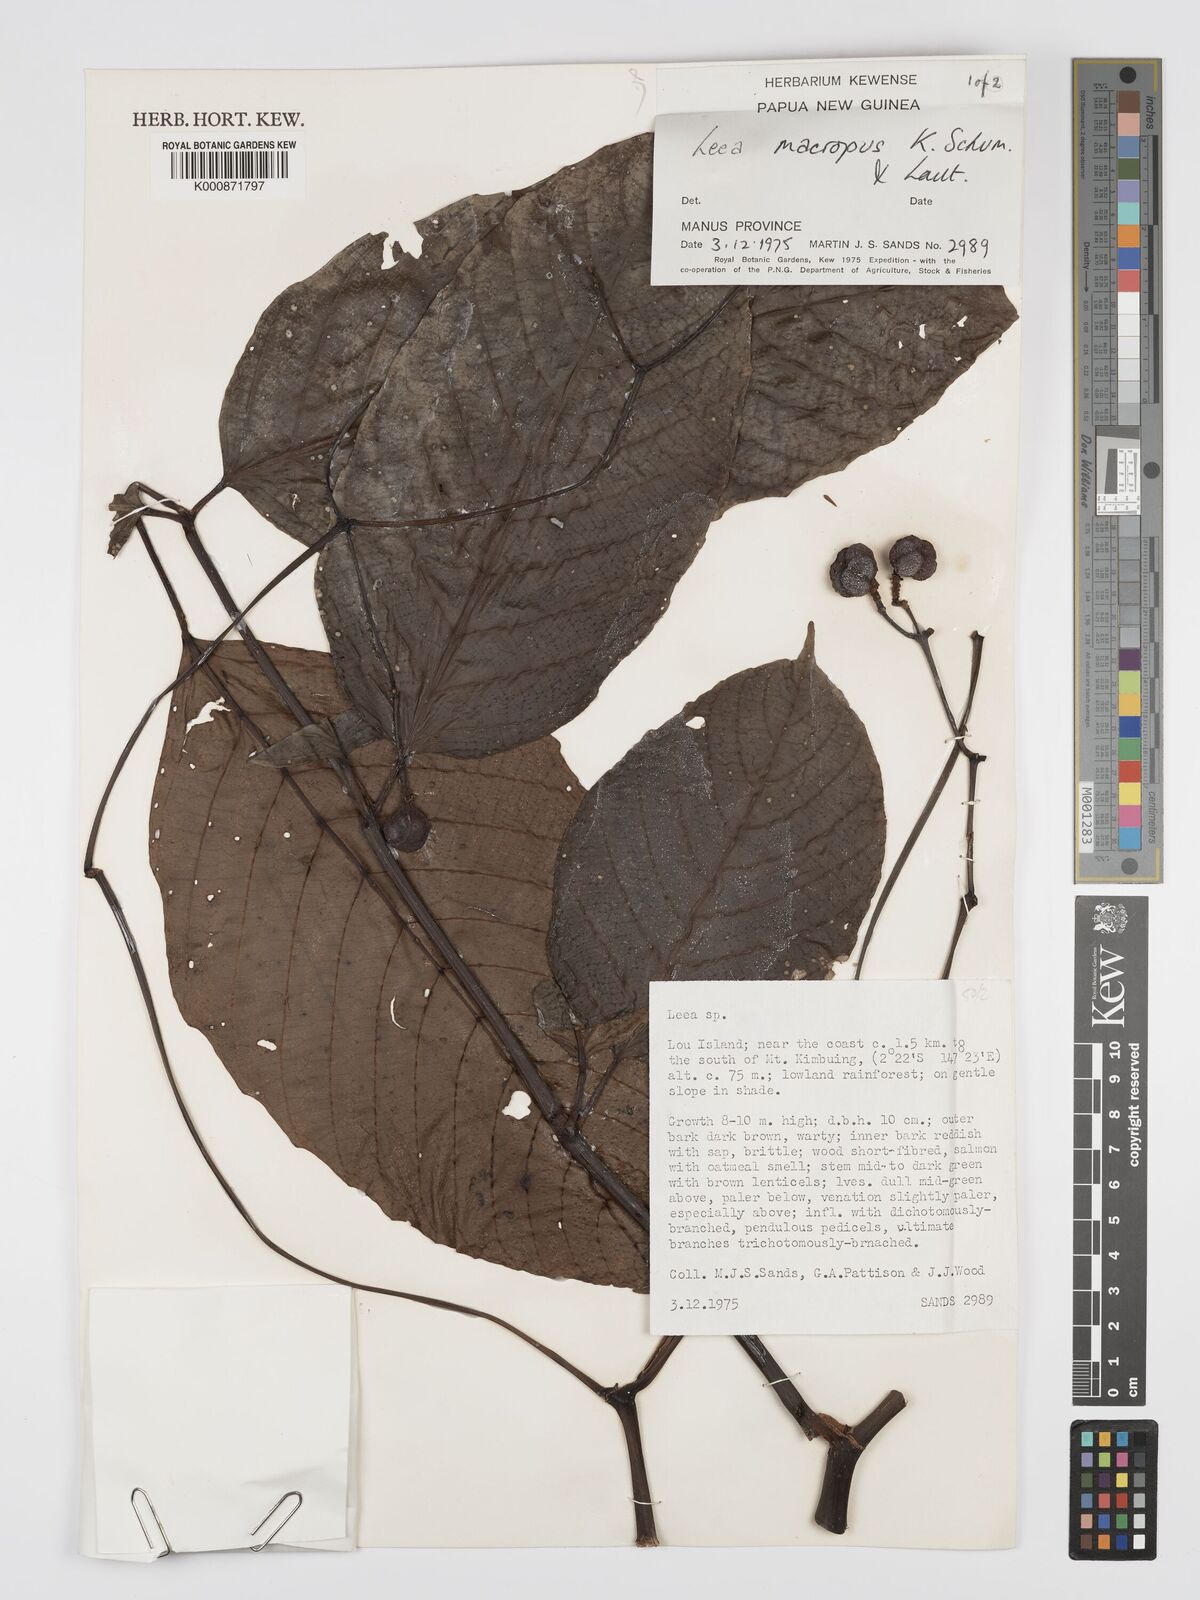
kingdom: Plantae
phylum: Tracheophyta
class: Magnoliopsida
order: Vitales
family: Vitaceae
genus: Leea
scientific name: Leea macropus
